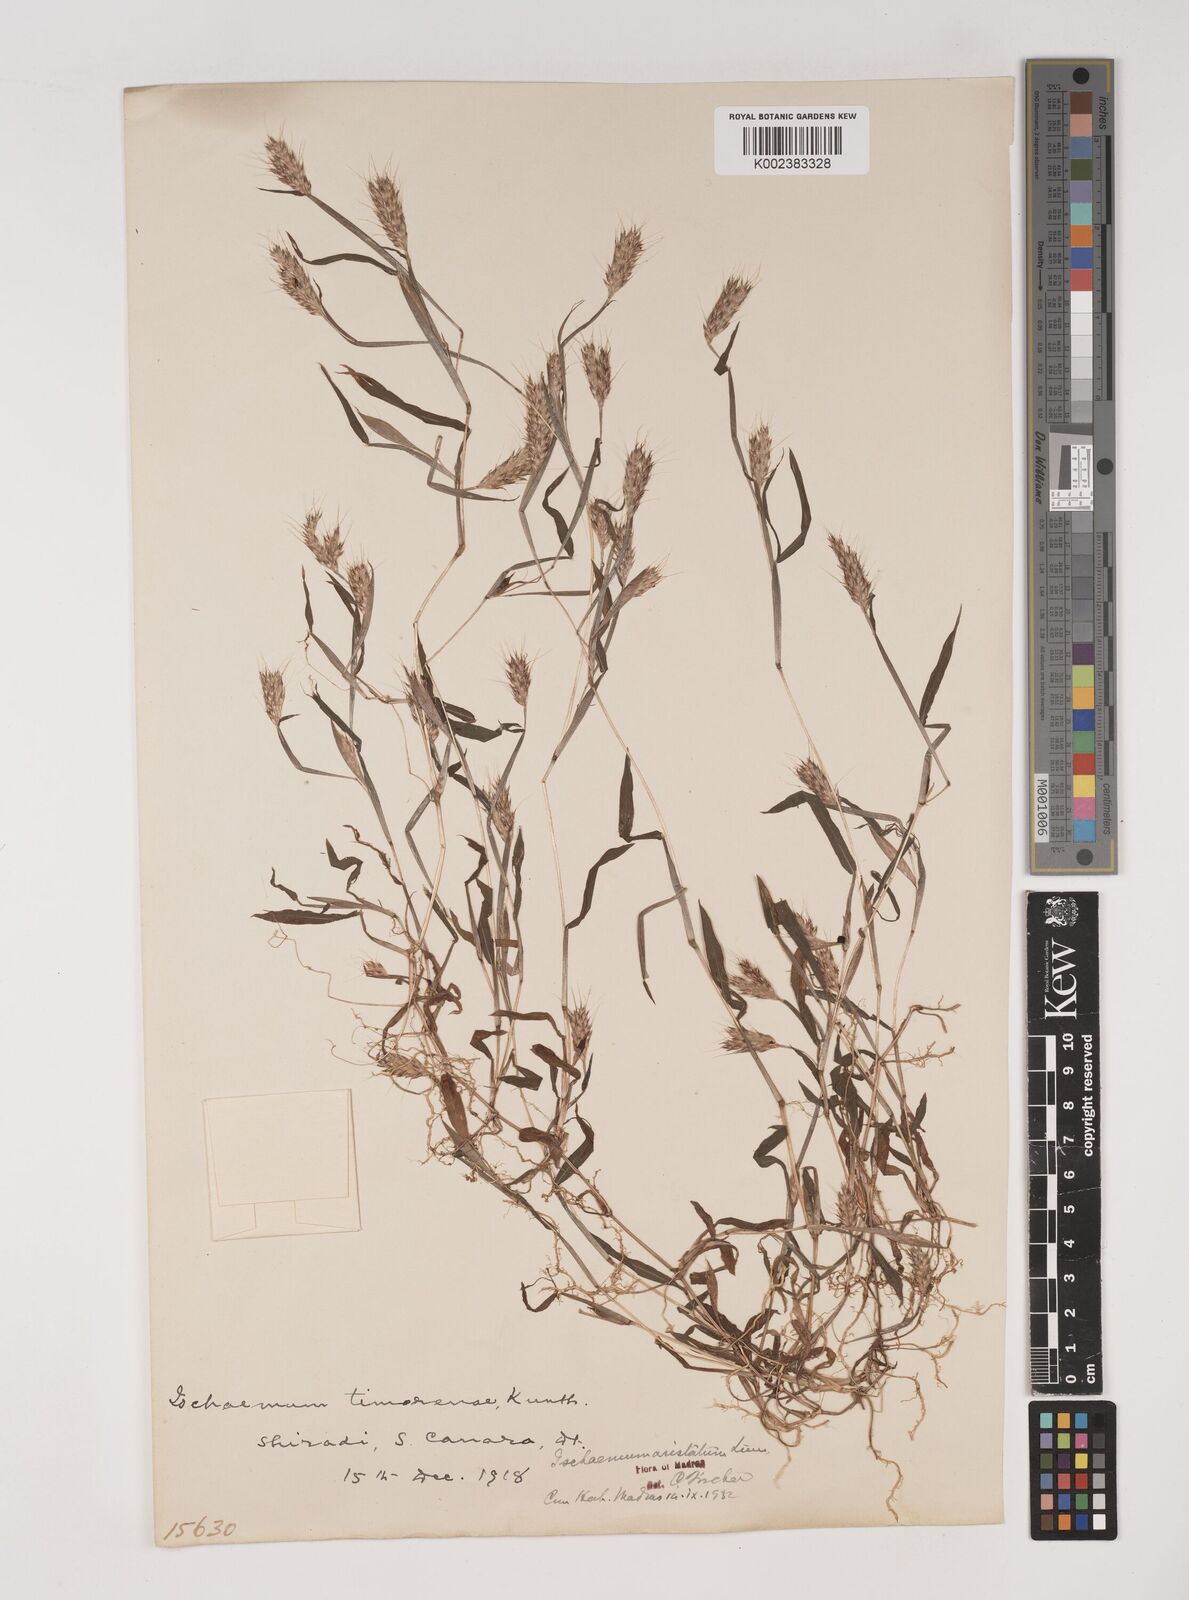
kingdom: Plantae
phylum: Tracheophyta
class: Liliopsida
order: Poales
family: Poaceae
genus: Polytrias
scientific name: Polytrias indica
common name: Indian murainagrass
